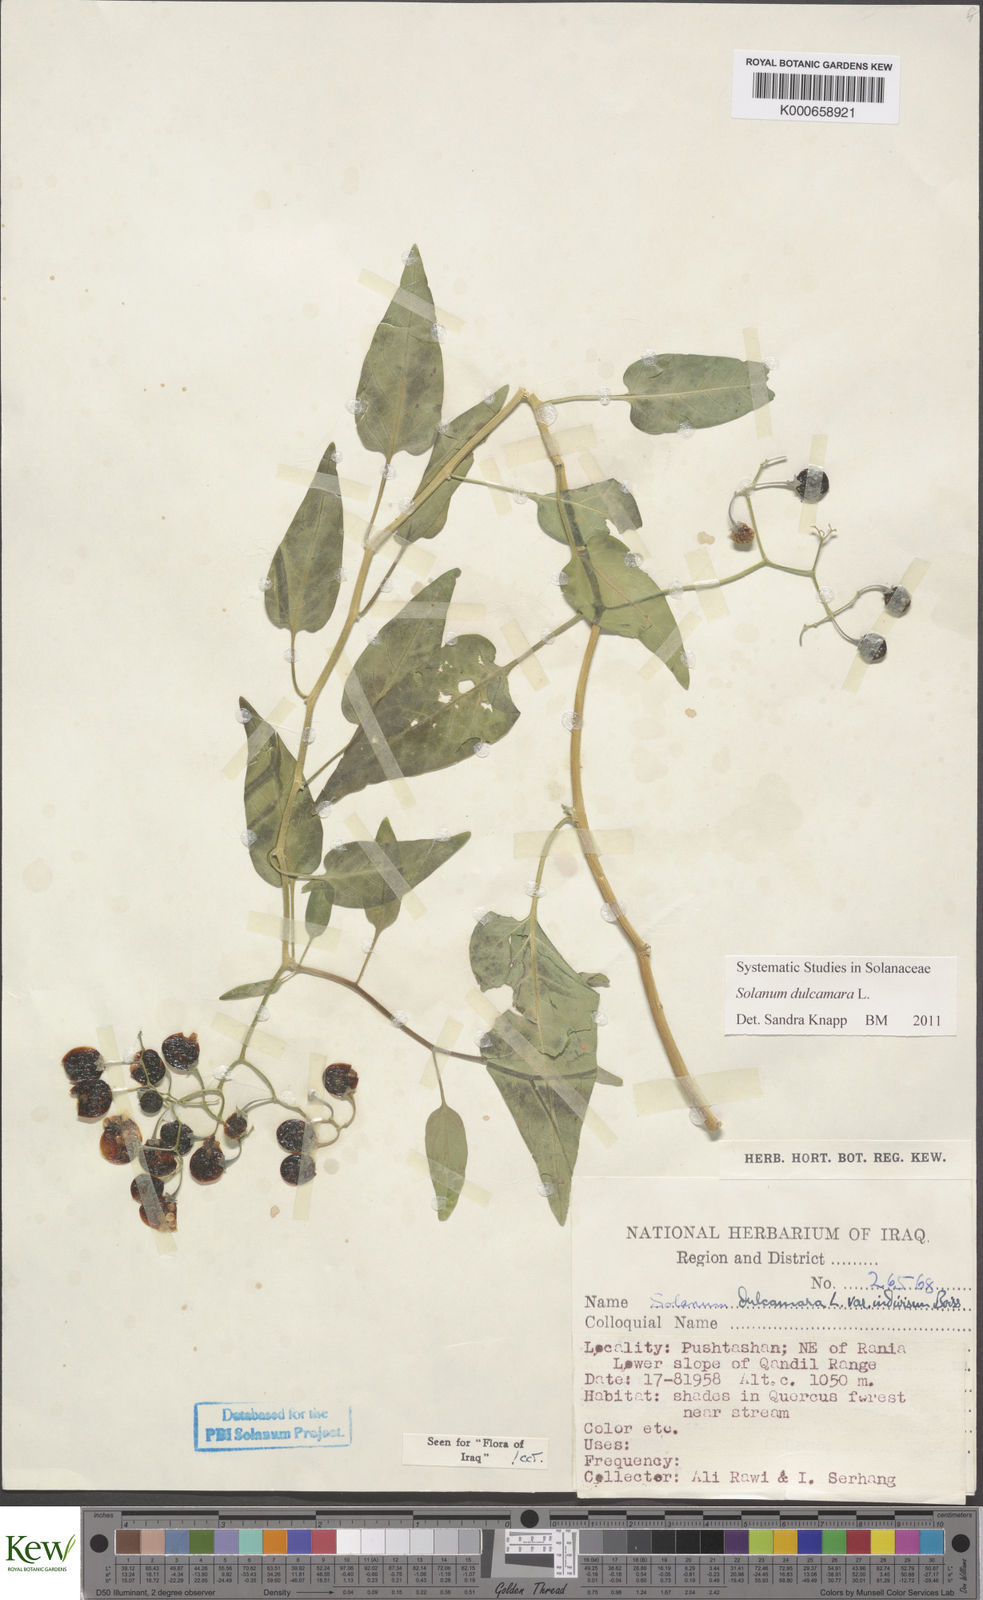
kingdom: Plantae
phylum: Tracheophyta
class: Magnoliopsida
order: Solanales
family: Solanaceae
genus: Solanum
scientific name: Solanum dulcamara
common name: Climbing nightshade
